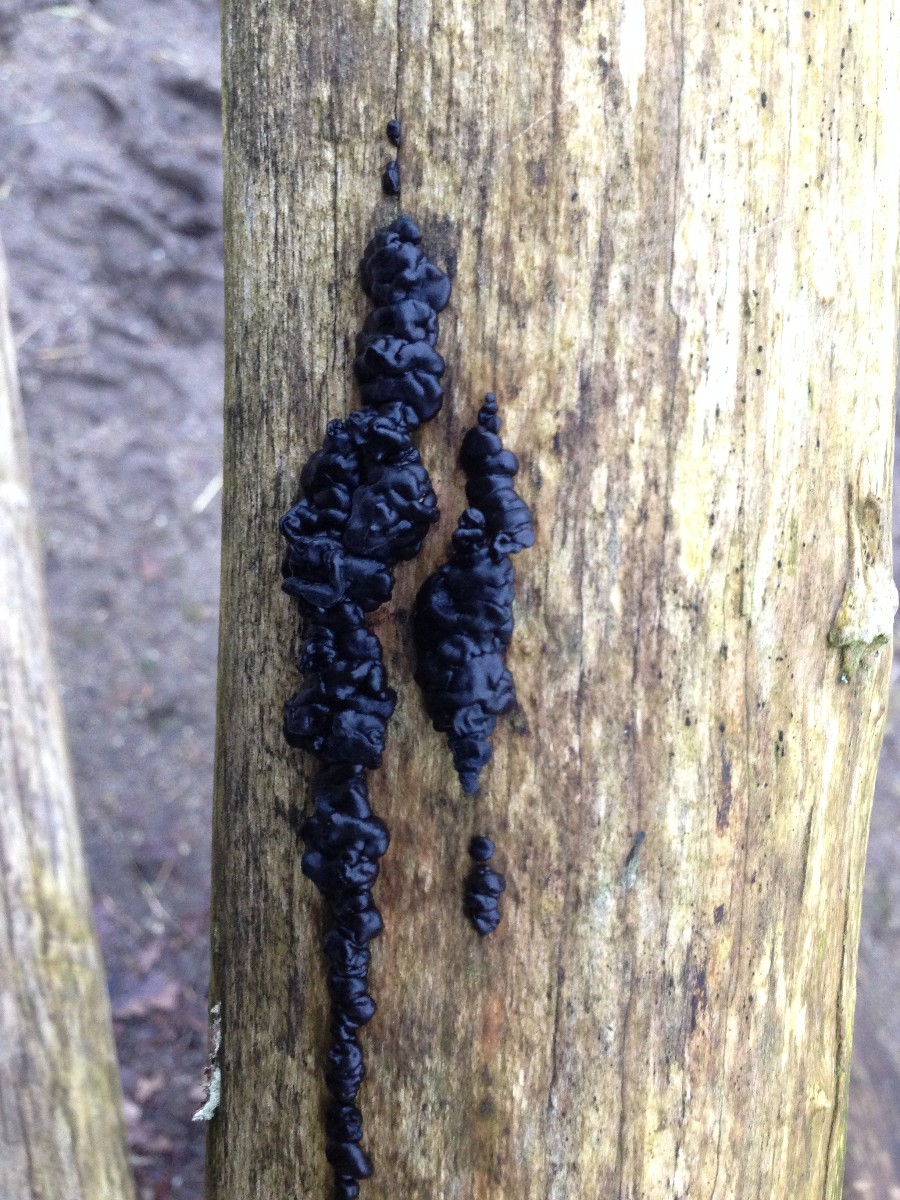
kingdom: Fungi
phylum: Basidiomycota
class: Agaricomycetes
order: Auriculariales
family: Auriculariaceae
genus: Exidia
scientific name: Exidia nigricans
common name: almindelig bævretop
